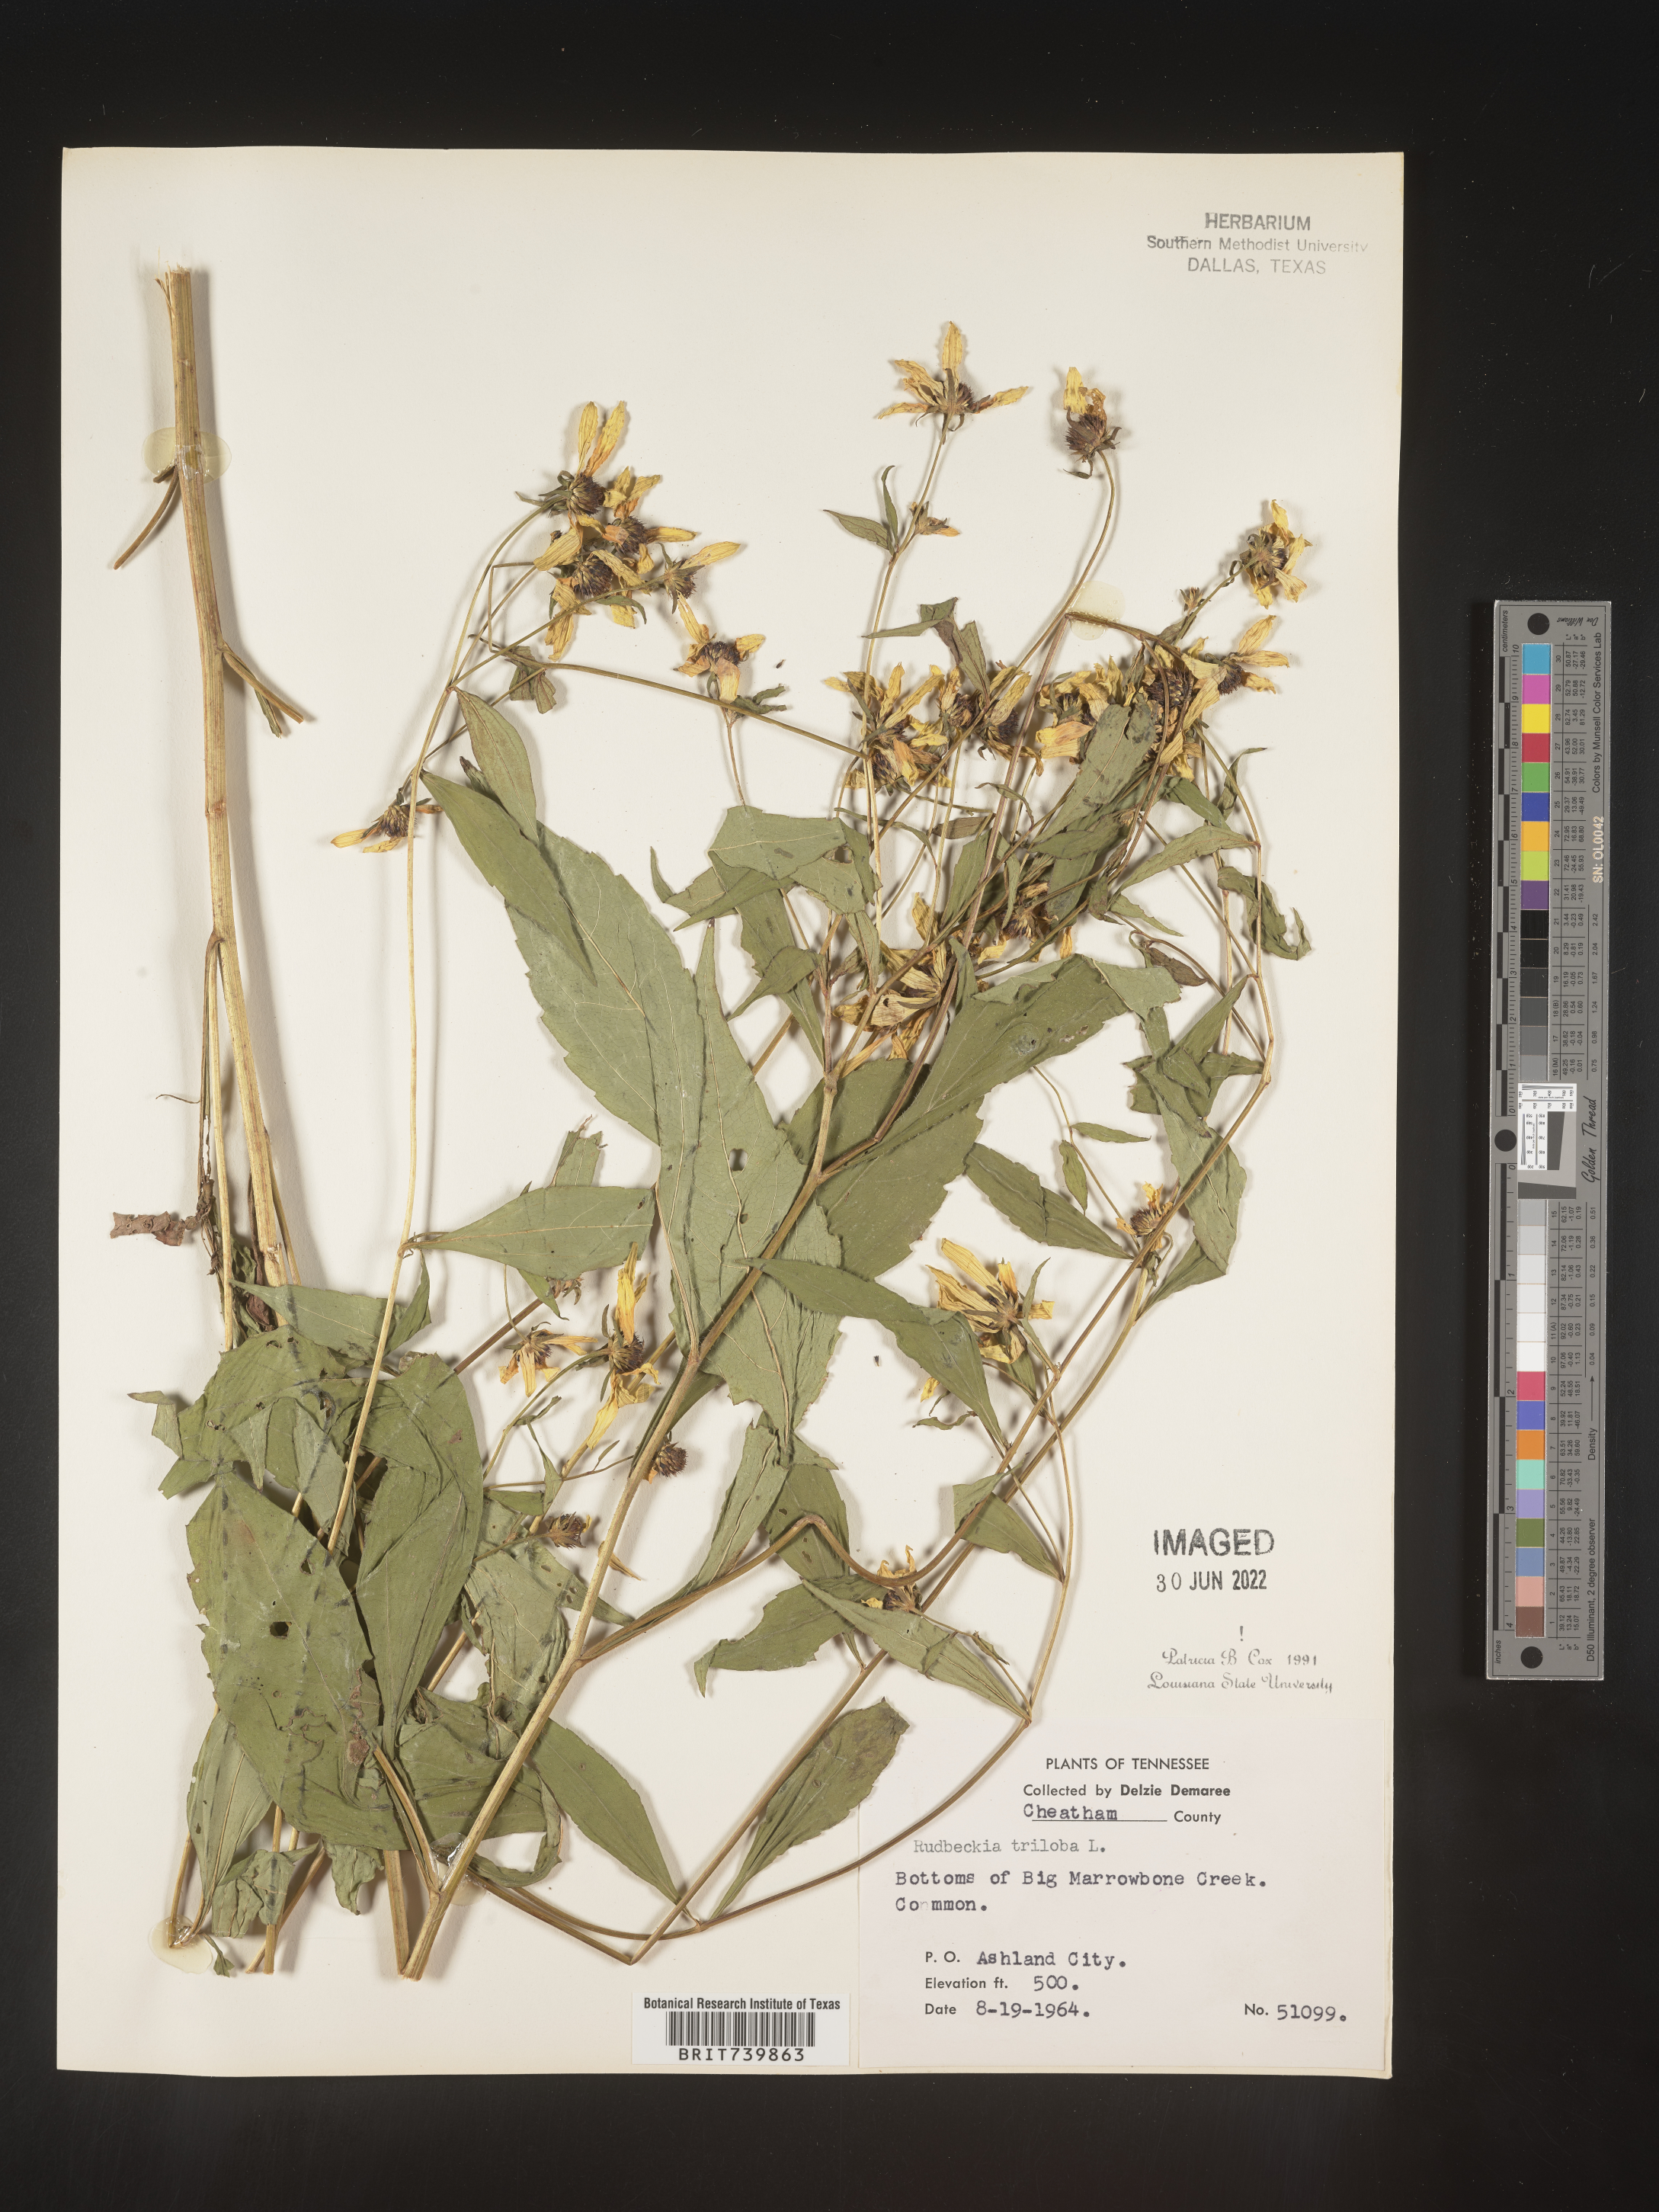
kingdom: Plantae
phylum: Tracheophyta
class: Magnoliopsida
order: Asterales
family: Asteraceae
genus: Rudbeckia
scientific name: Rudbeckia triloba
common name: Thin-leaved coneflower
